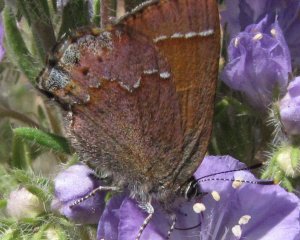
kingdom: Animalia
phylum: Arthropoda
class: Insecta
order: Lepidoptera
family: Lycaenidae
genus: Mitoura
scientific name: Mitoura nelsoni
